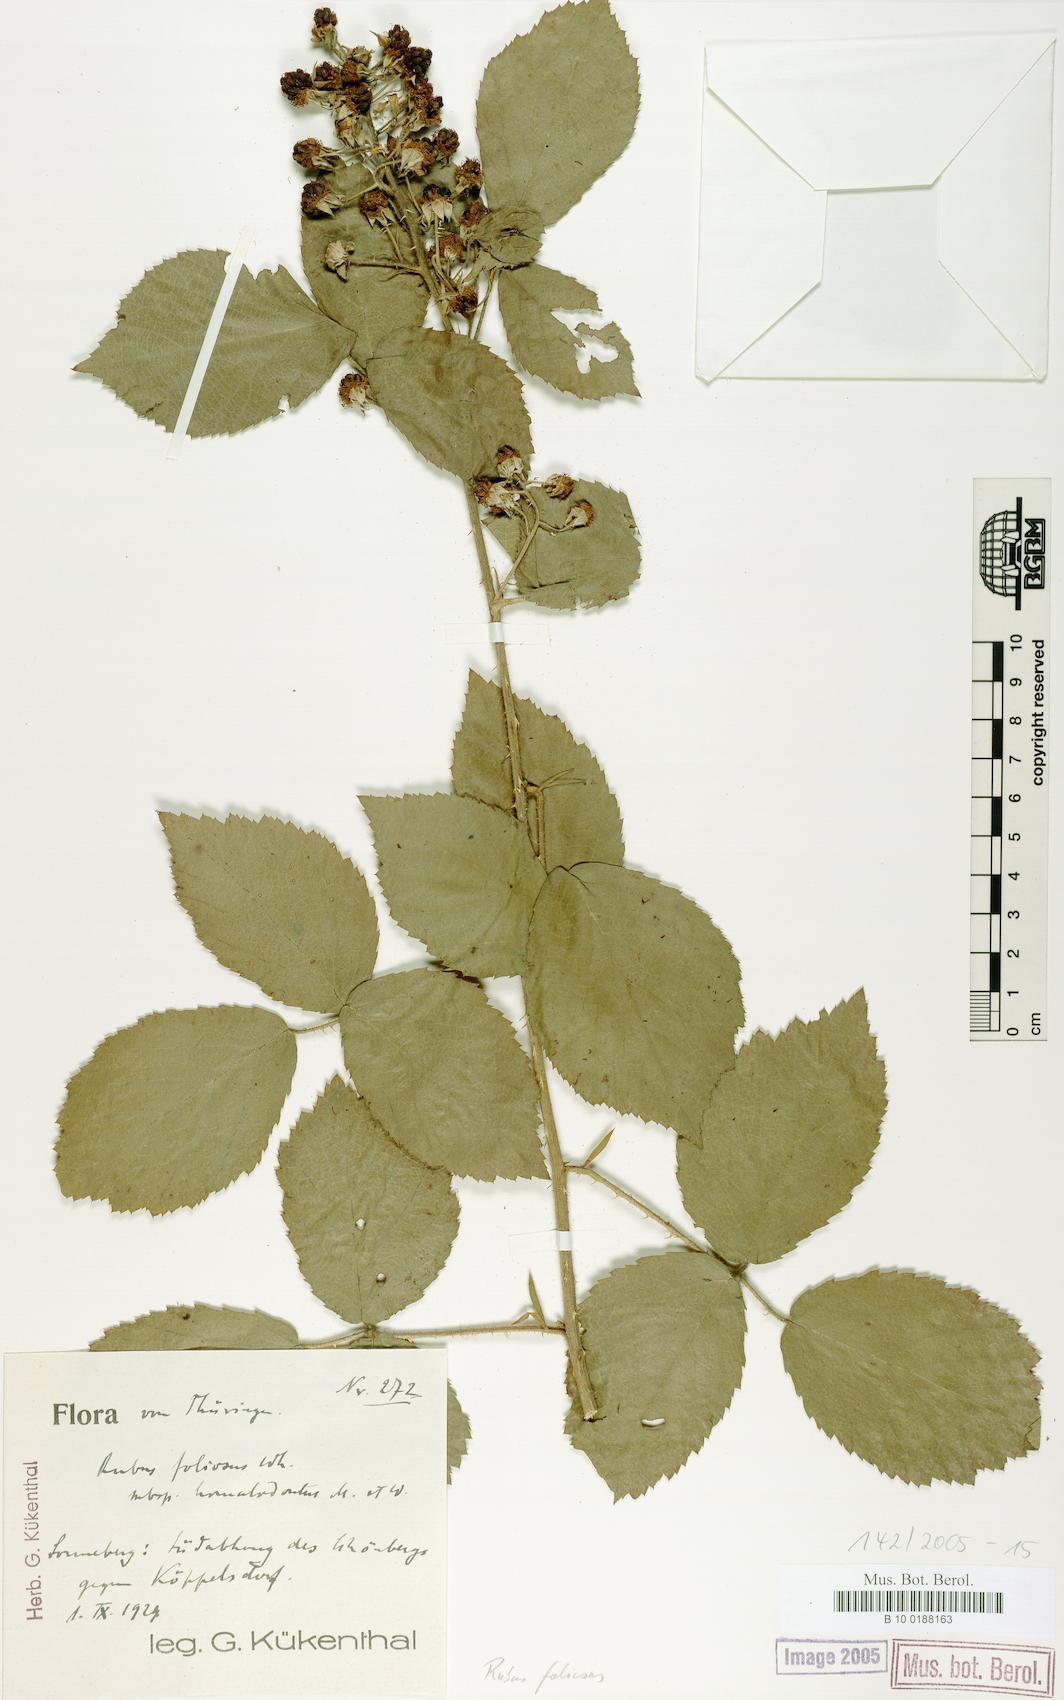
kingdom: Plantae
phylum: Tracheophyta
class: Magnoliopsida
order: Rosales
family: Rosaceae
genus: Rubus
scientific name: Rubus silvae-thuringiae
